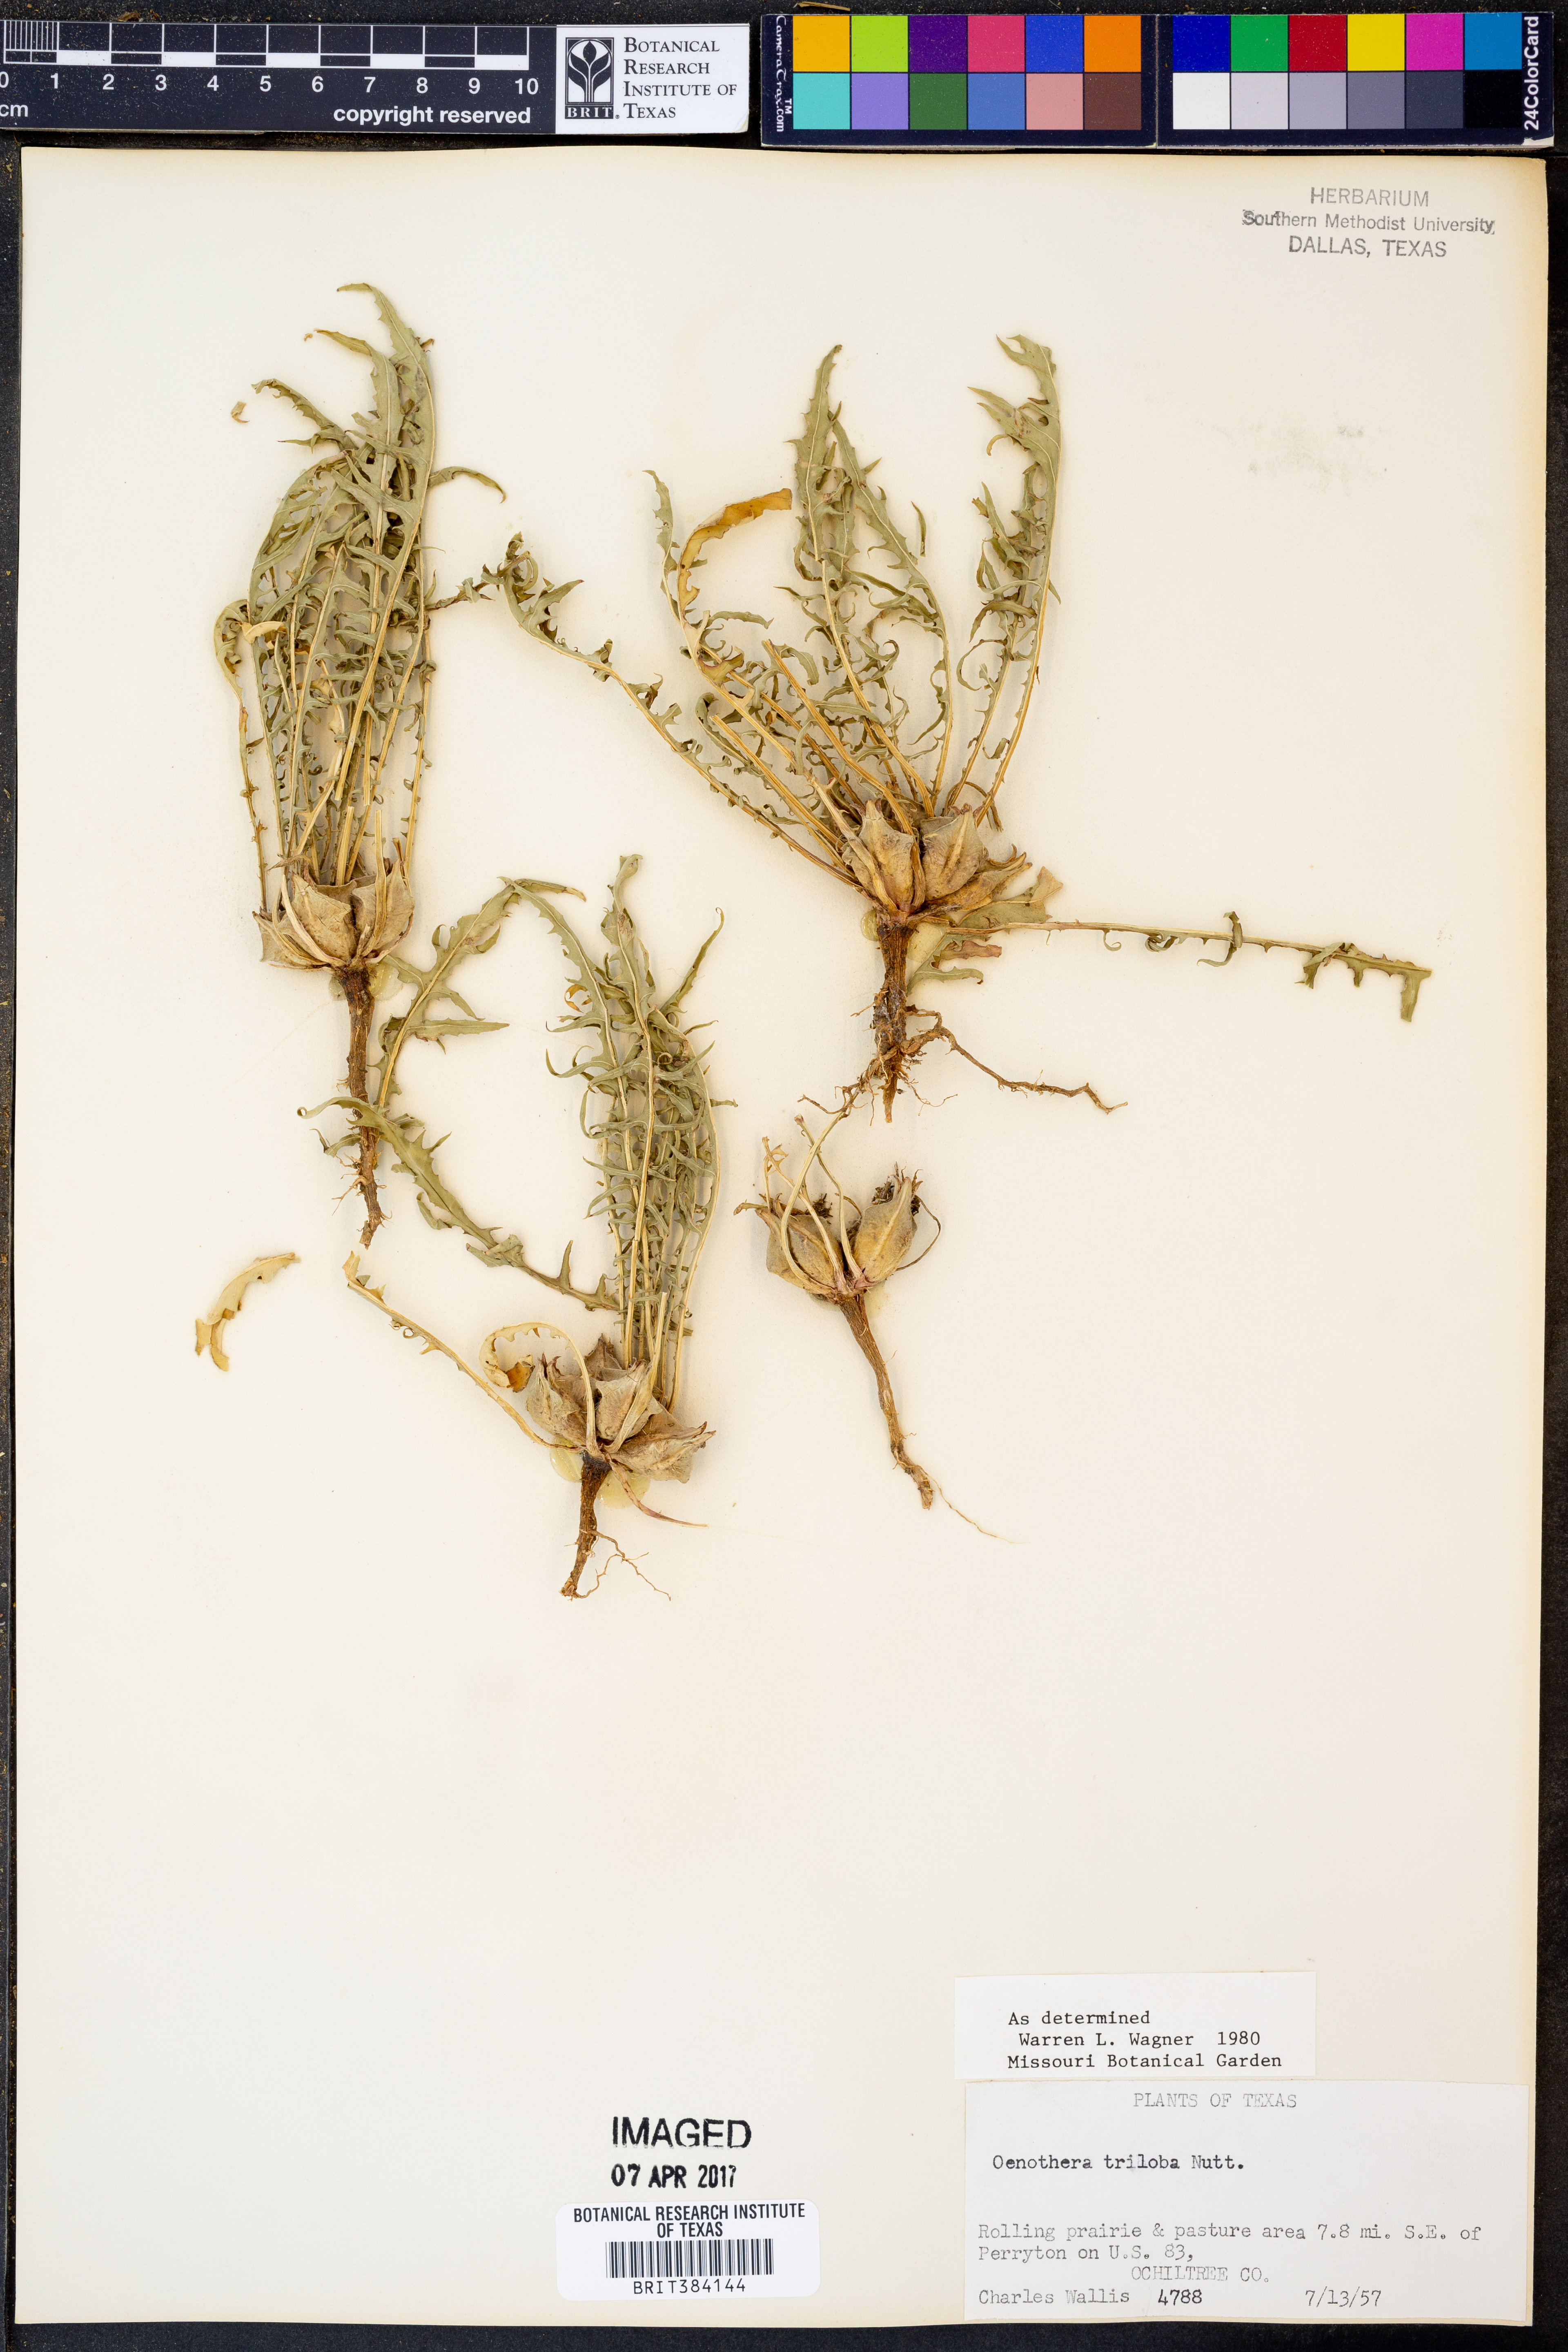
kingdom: Plantae
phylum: Tracheophyta
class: Magnoliopsida
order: Myrtales
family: Onagraceae
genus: Oenothera
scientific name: Oenothera triloba
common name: Sessile evening-primrose
